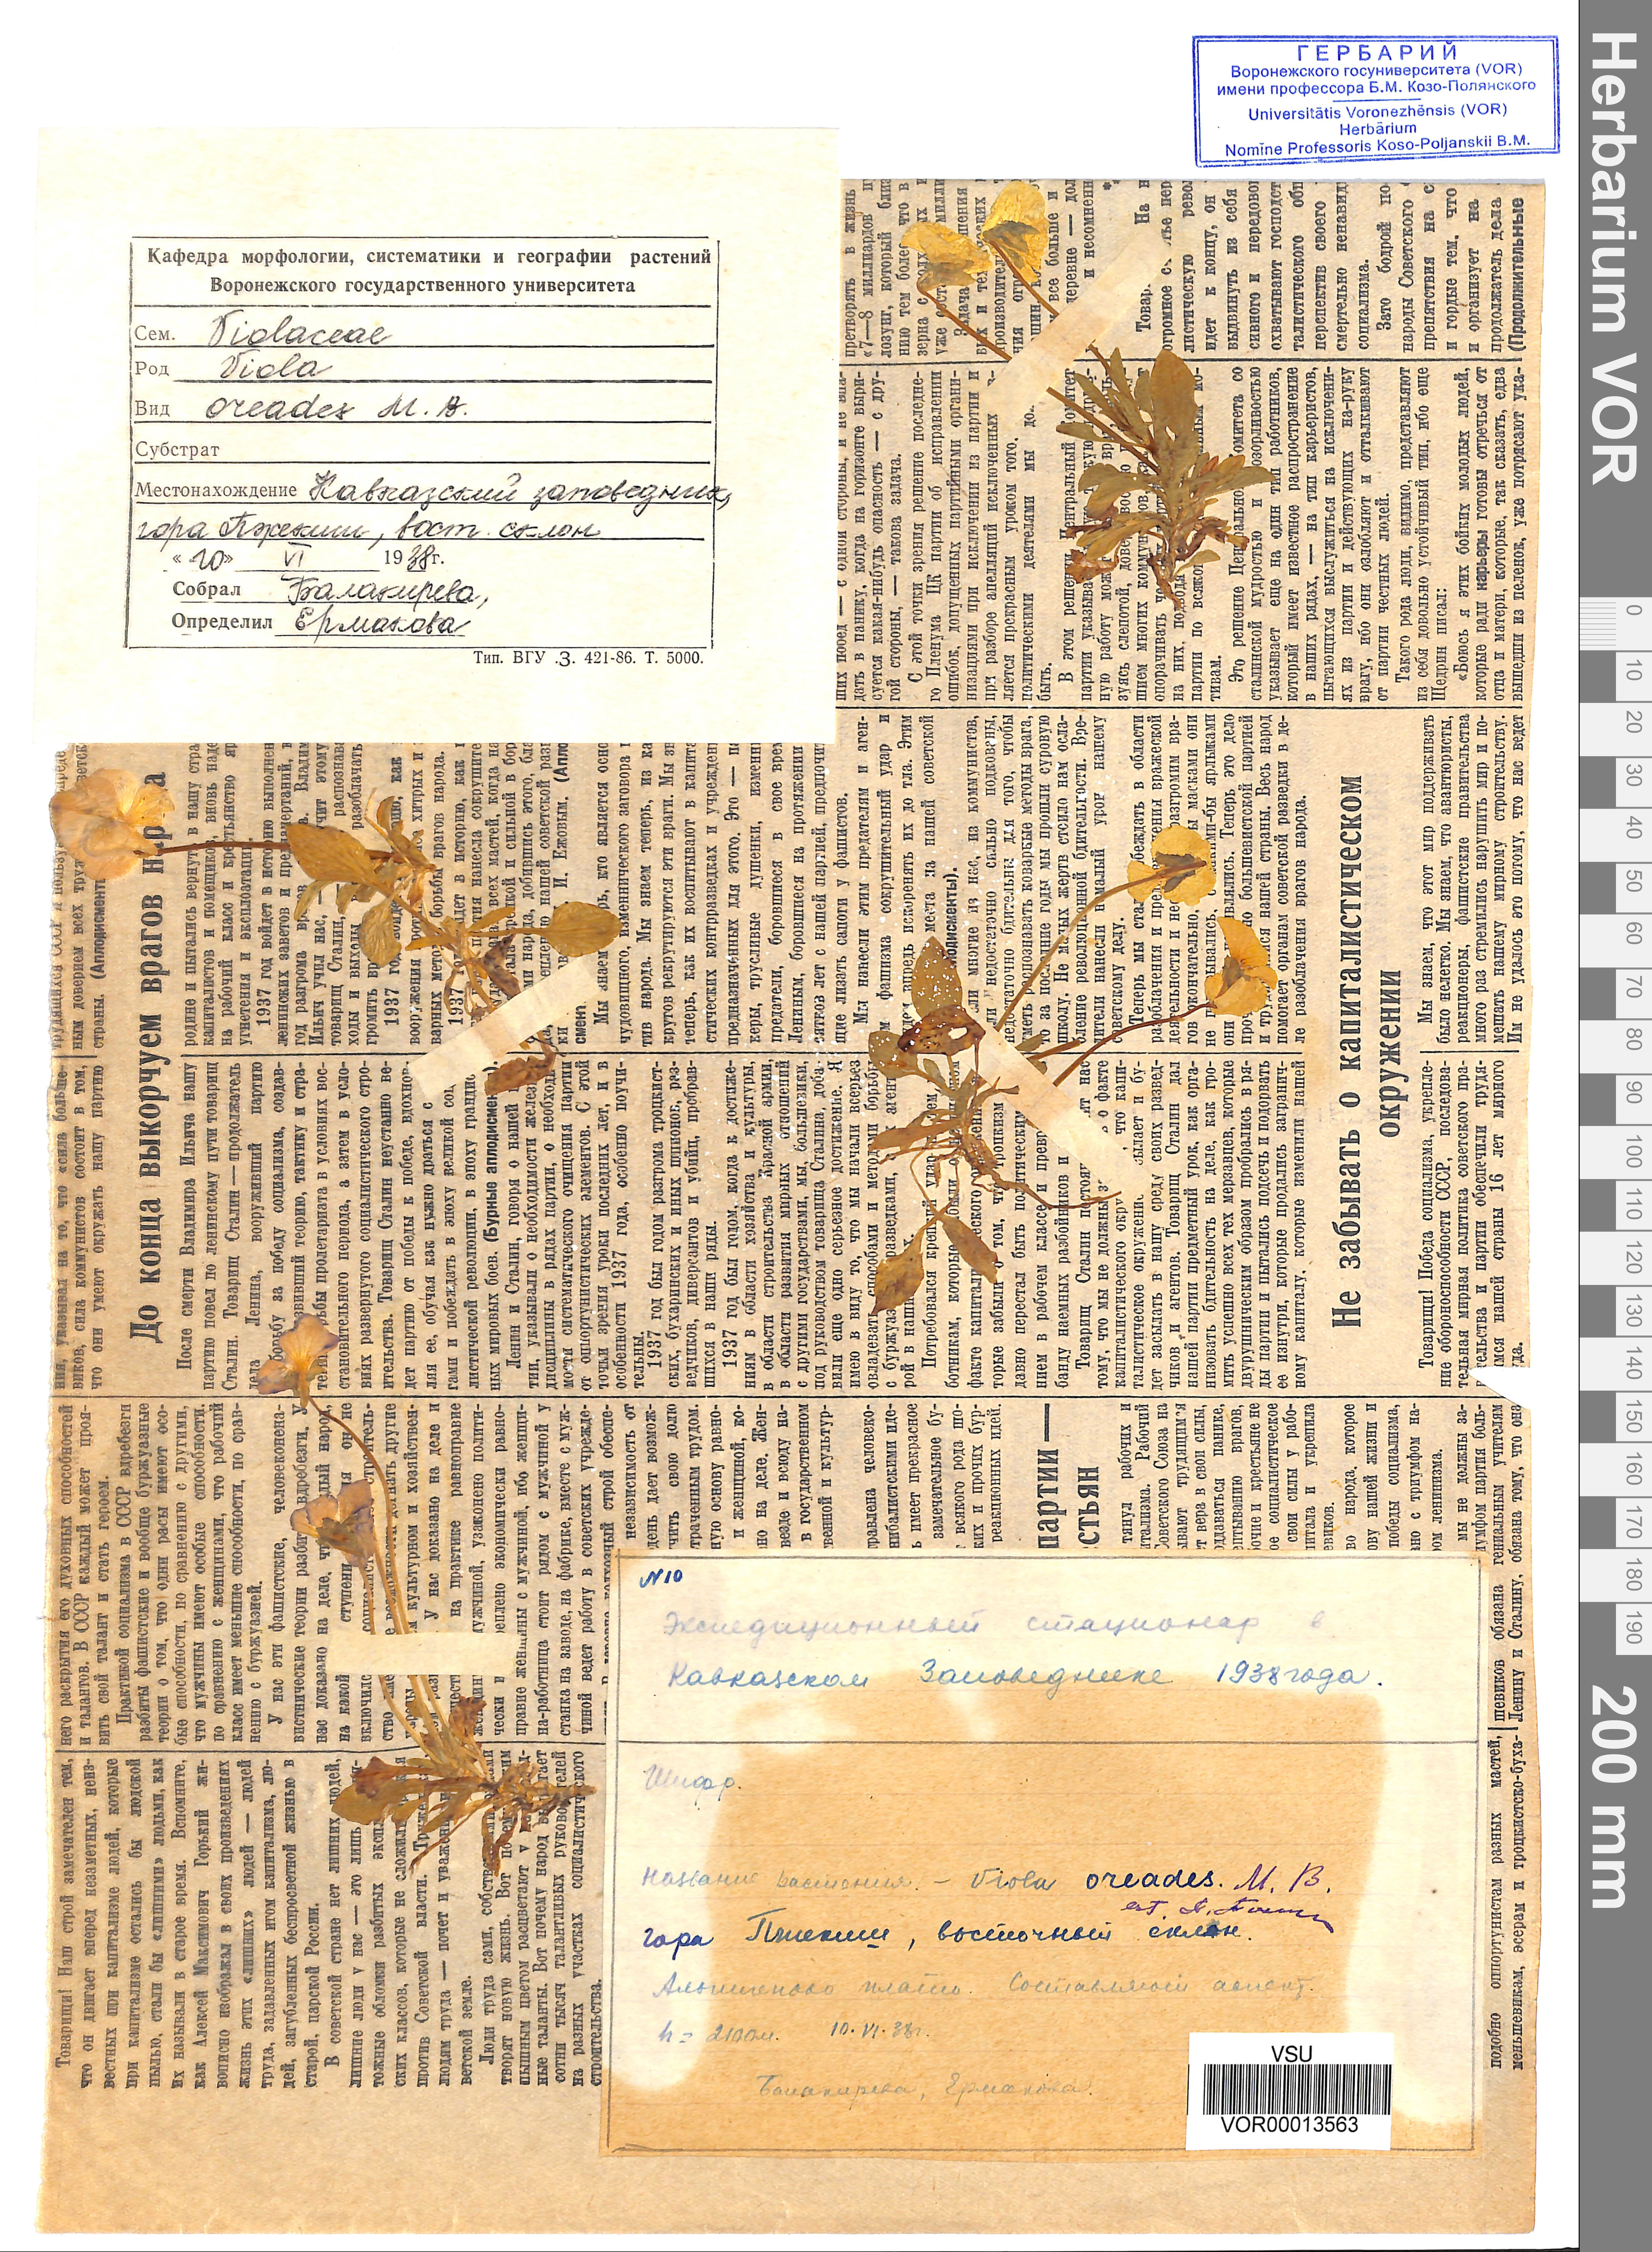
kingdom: Plantae
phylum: Tracheophyta
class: Magnoliopsida
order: Malpighiales
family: Violaceae
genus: Viola
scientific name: Viola oreades
